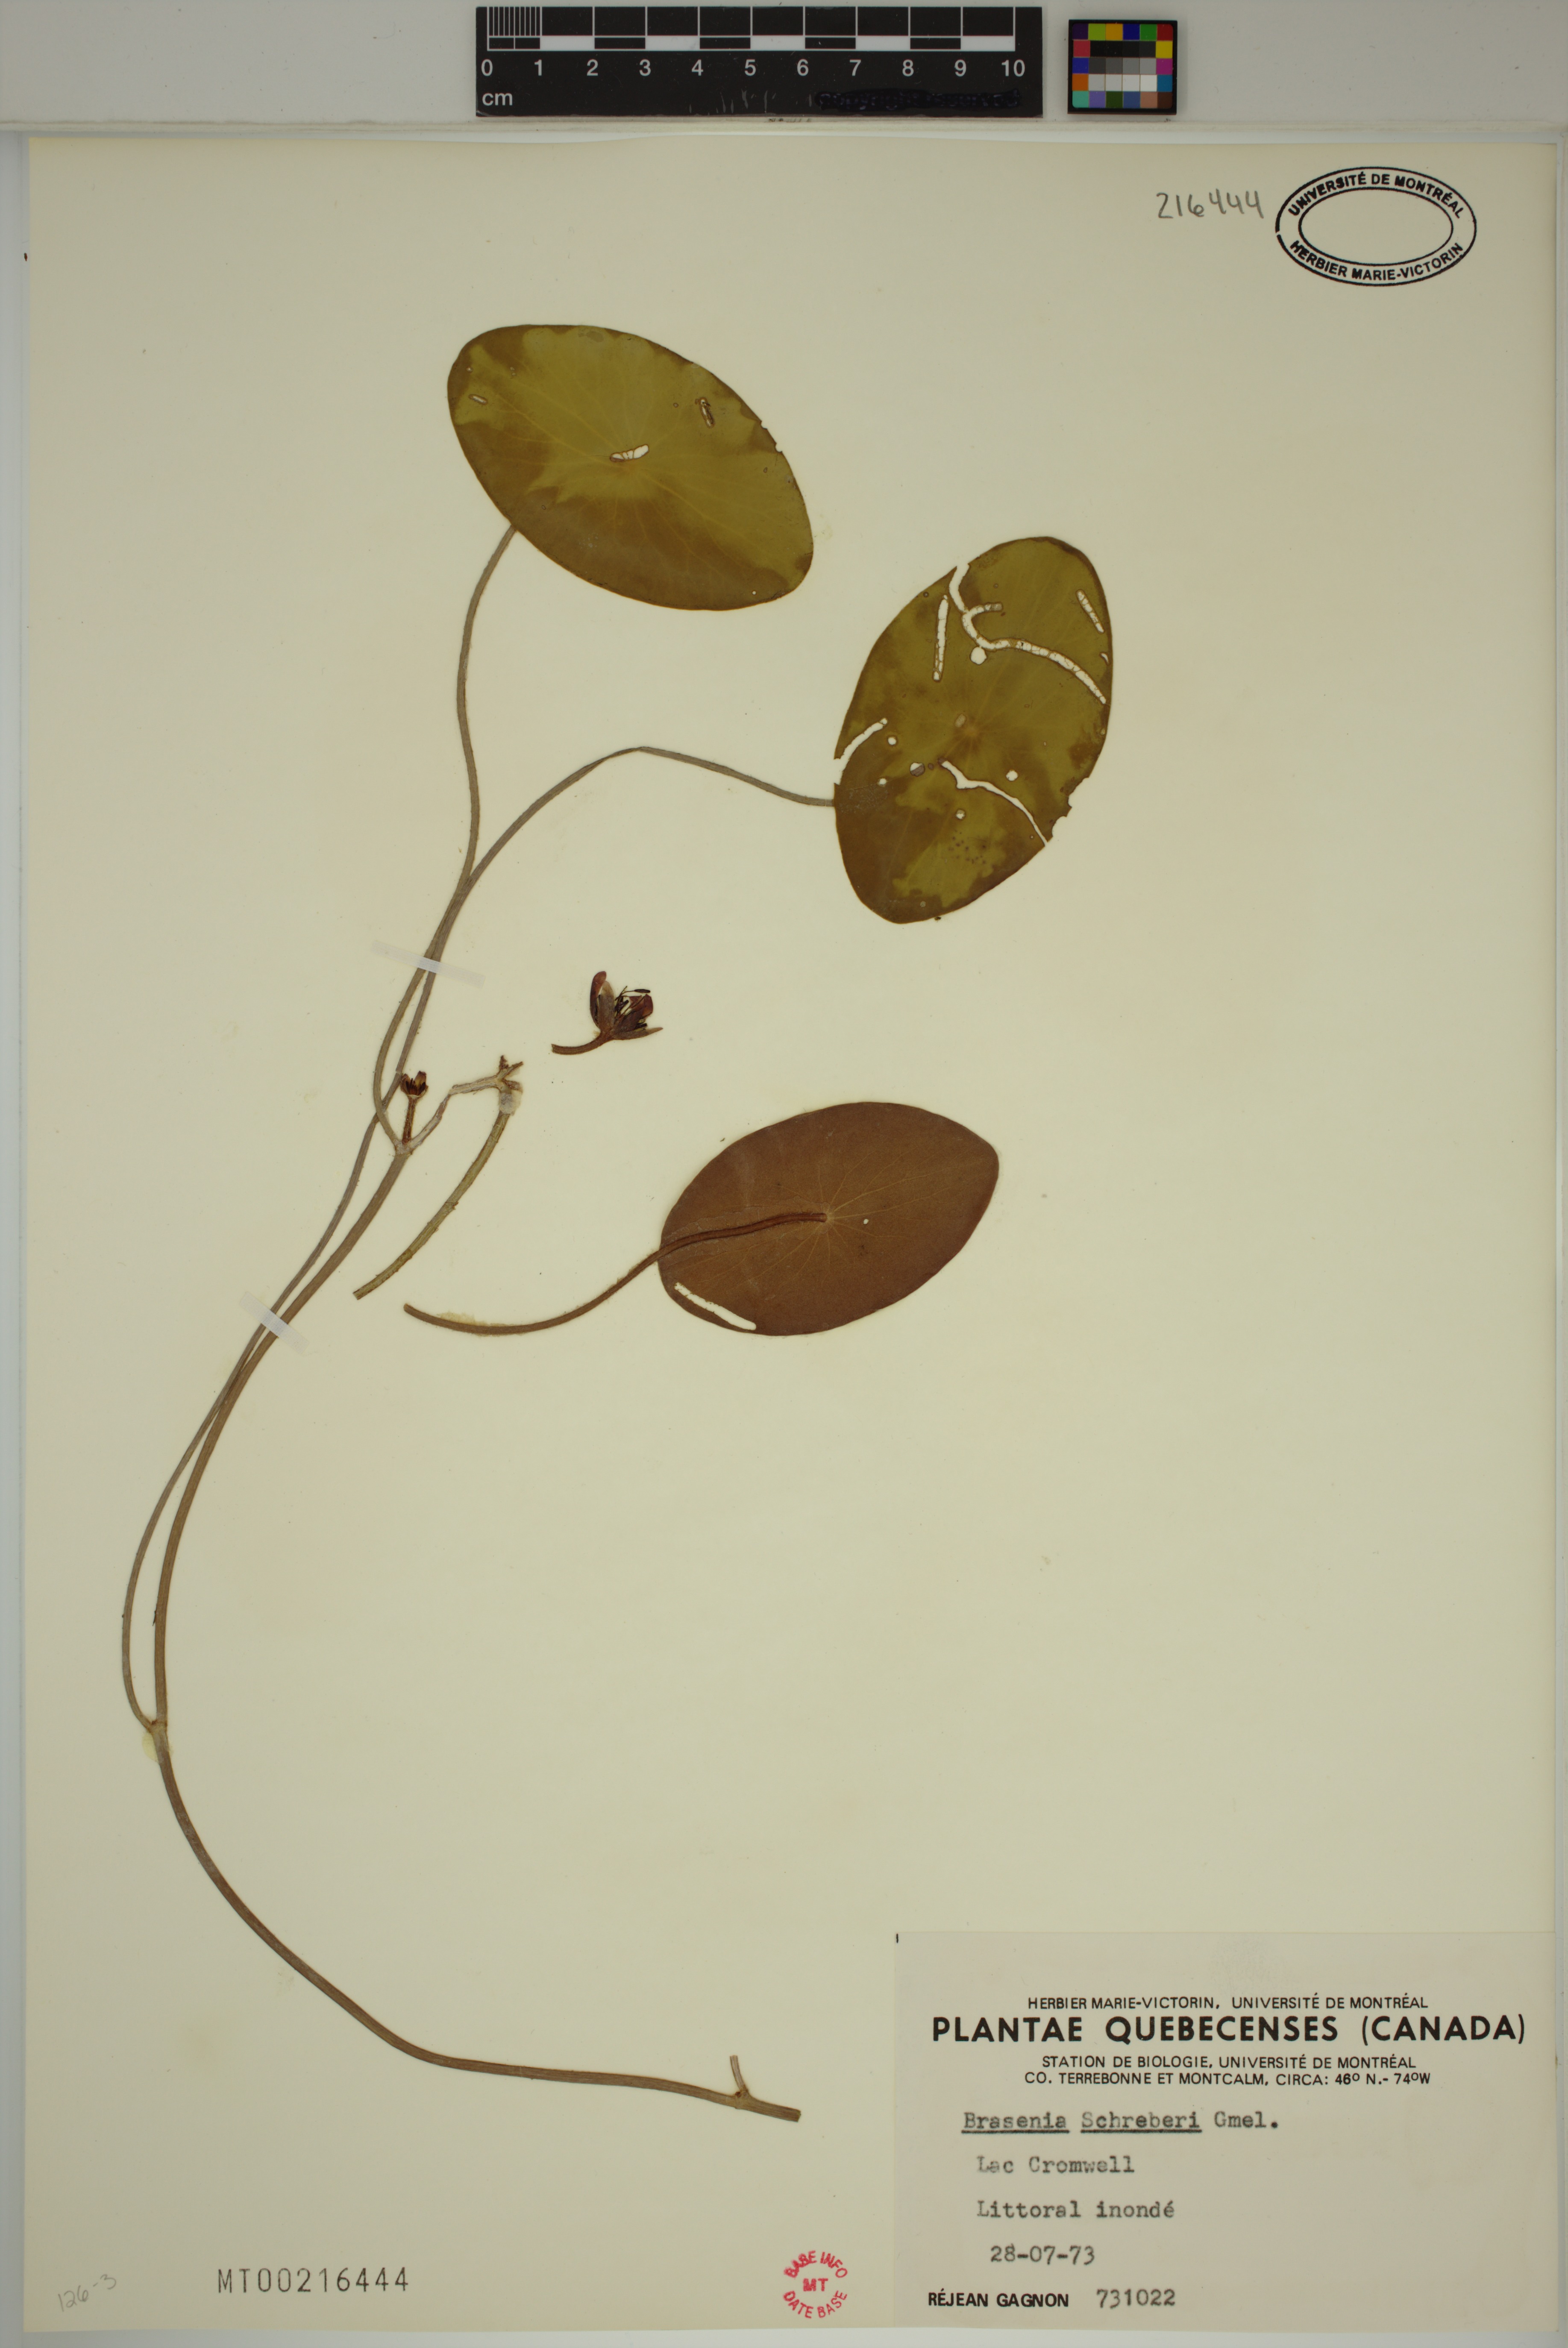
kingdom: Plantae
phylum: Tracheophyta
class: Magnoliopsida
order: Nymphaeales
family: Cabombaceae
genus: Brasenia
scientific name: Brasenia schreberi
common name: Water-shield
